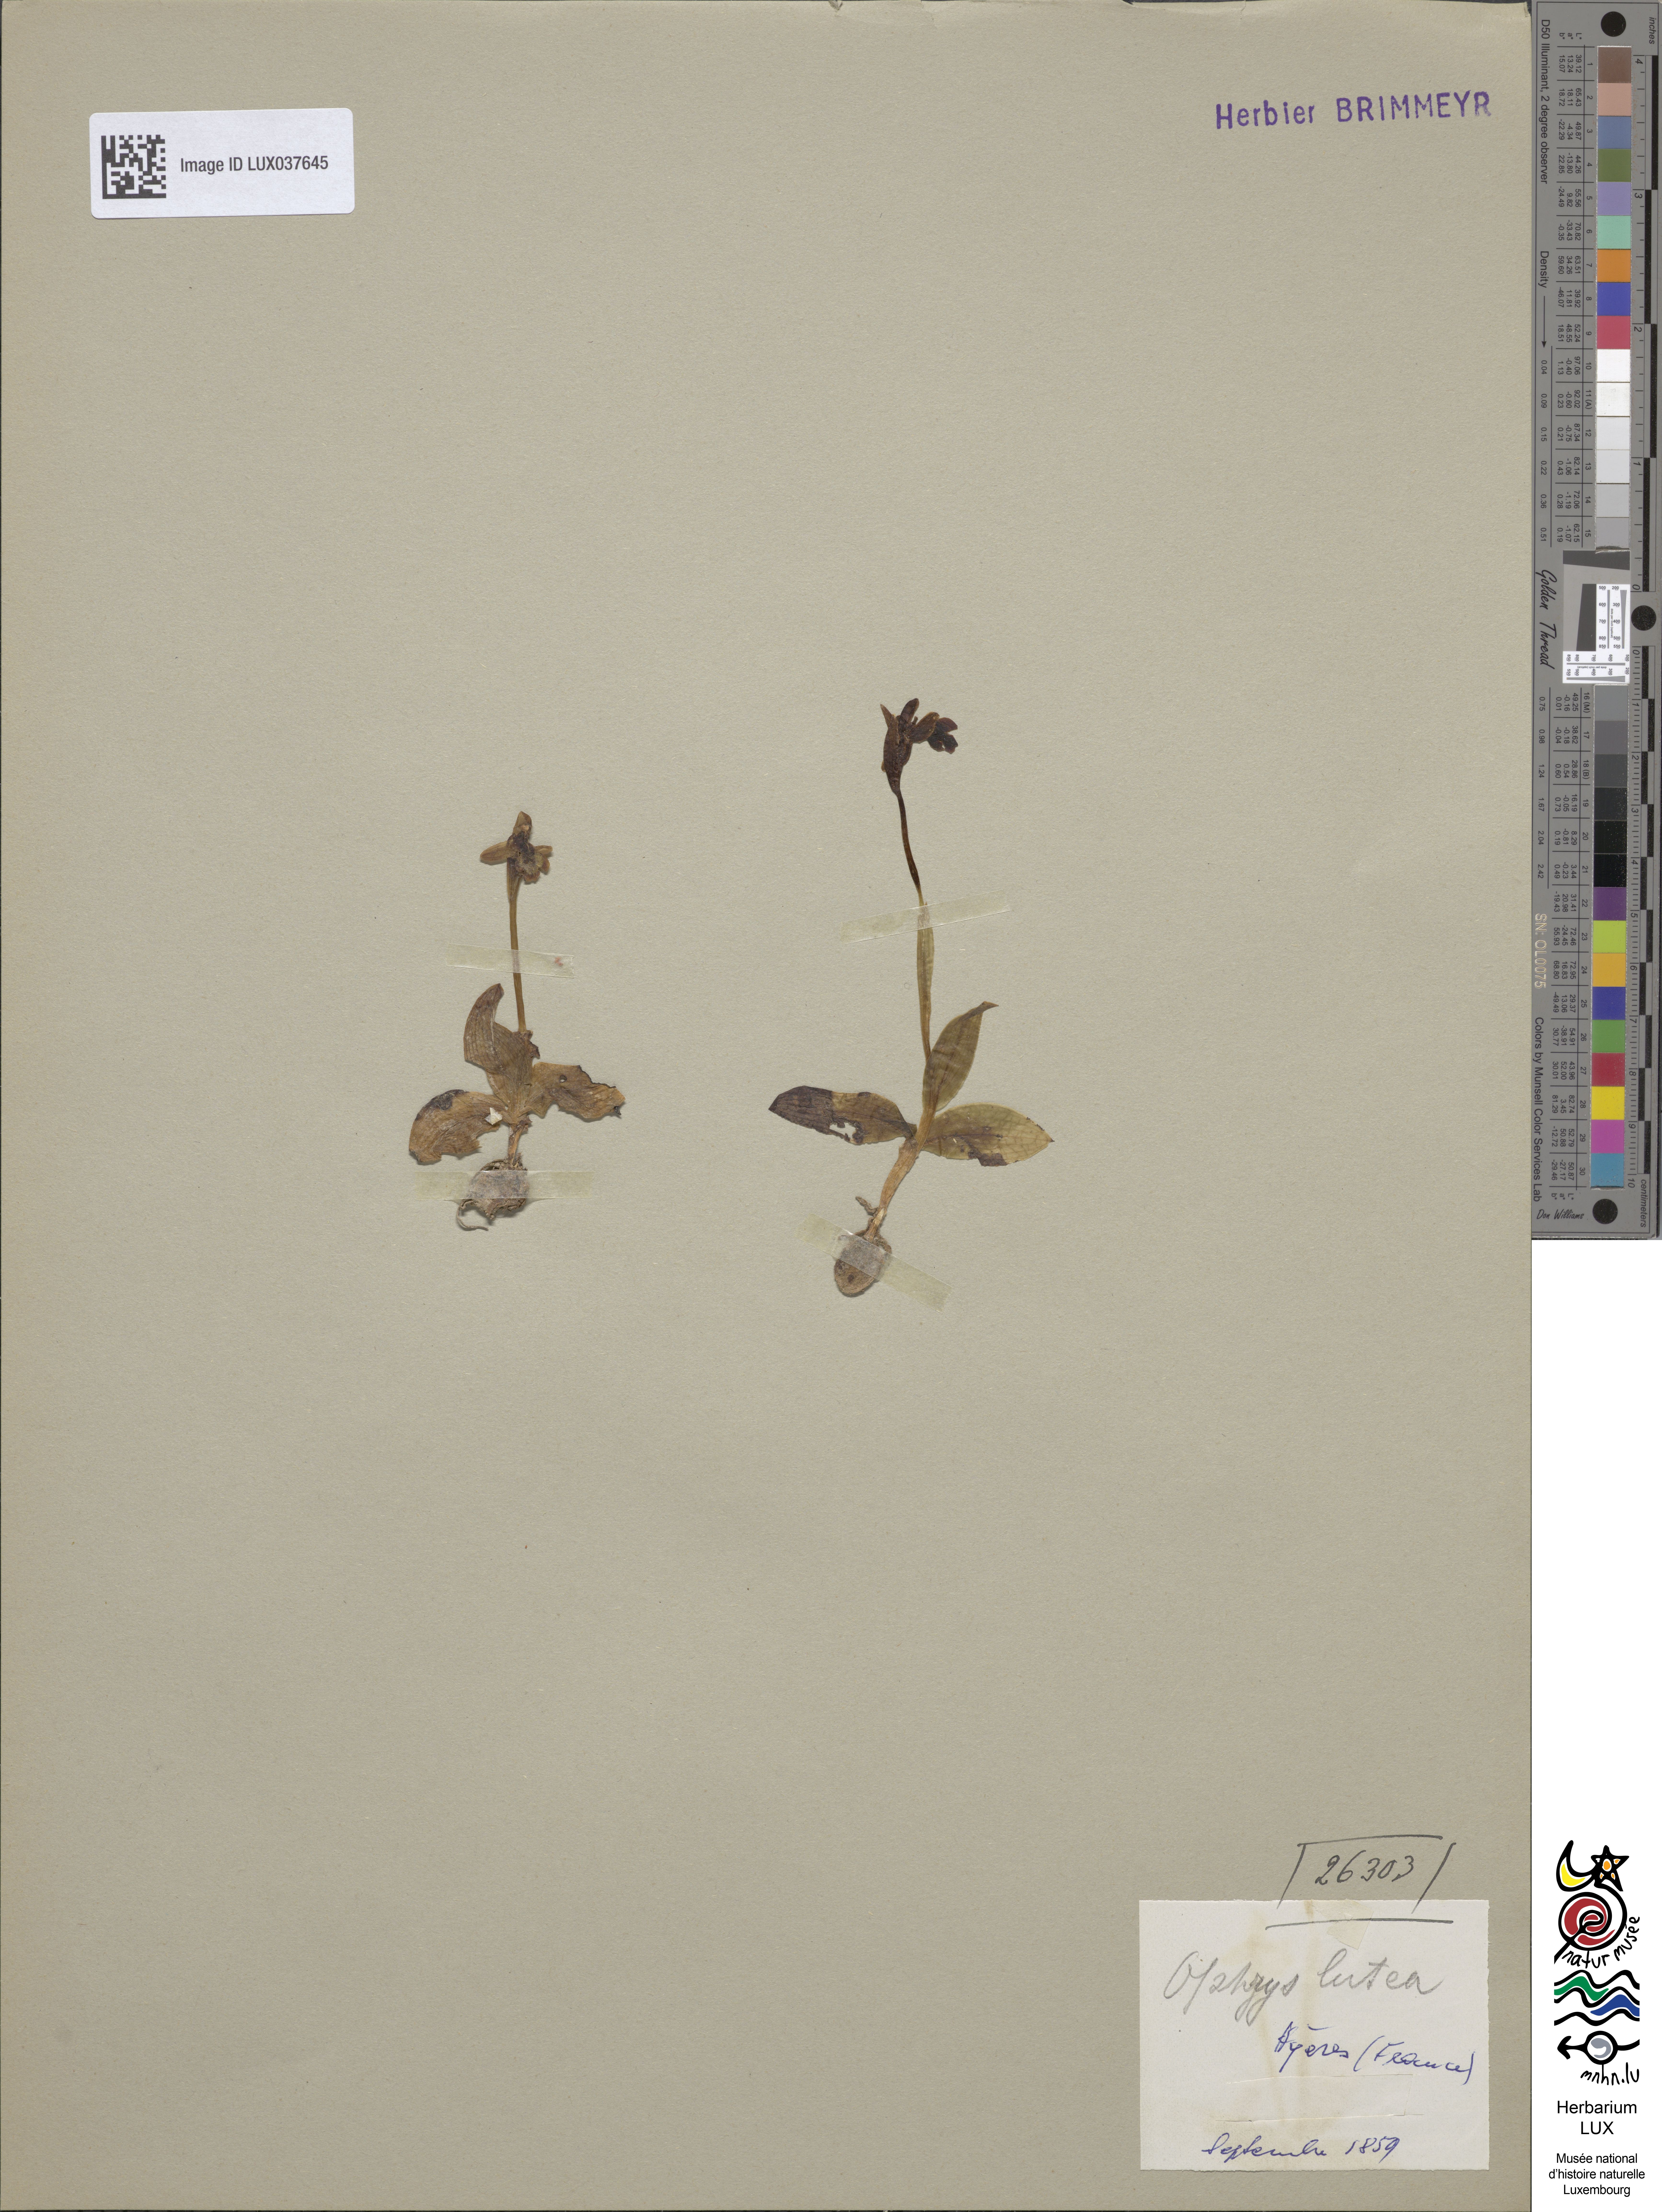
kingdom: Plantae
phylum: Tracheophyta
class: Liliopsida
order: Asparagales
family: Orchidaceae
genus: Ophrys
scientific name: Ophrys lutea
